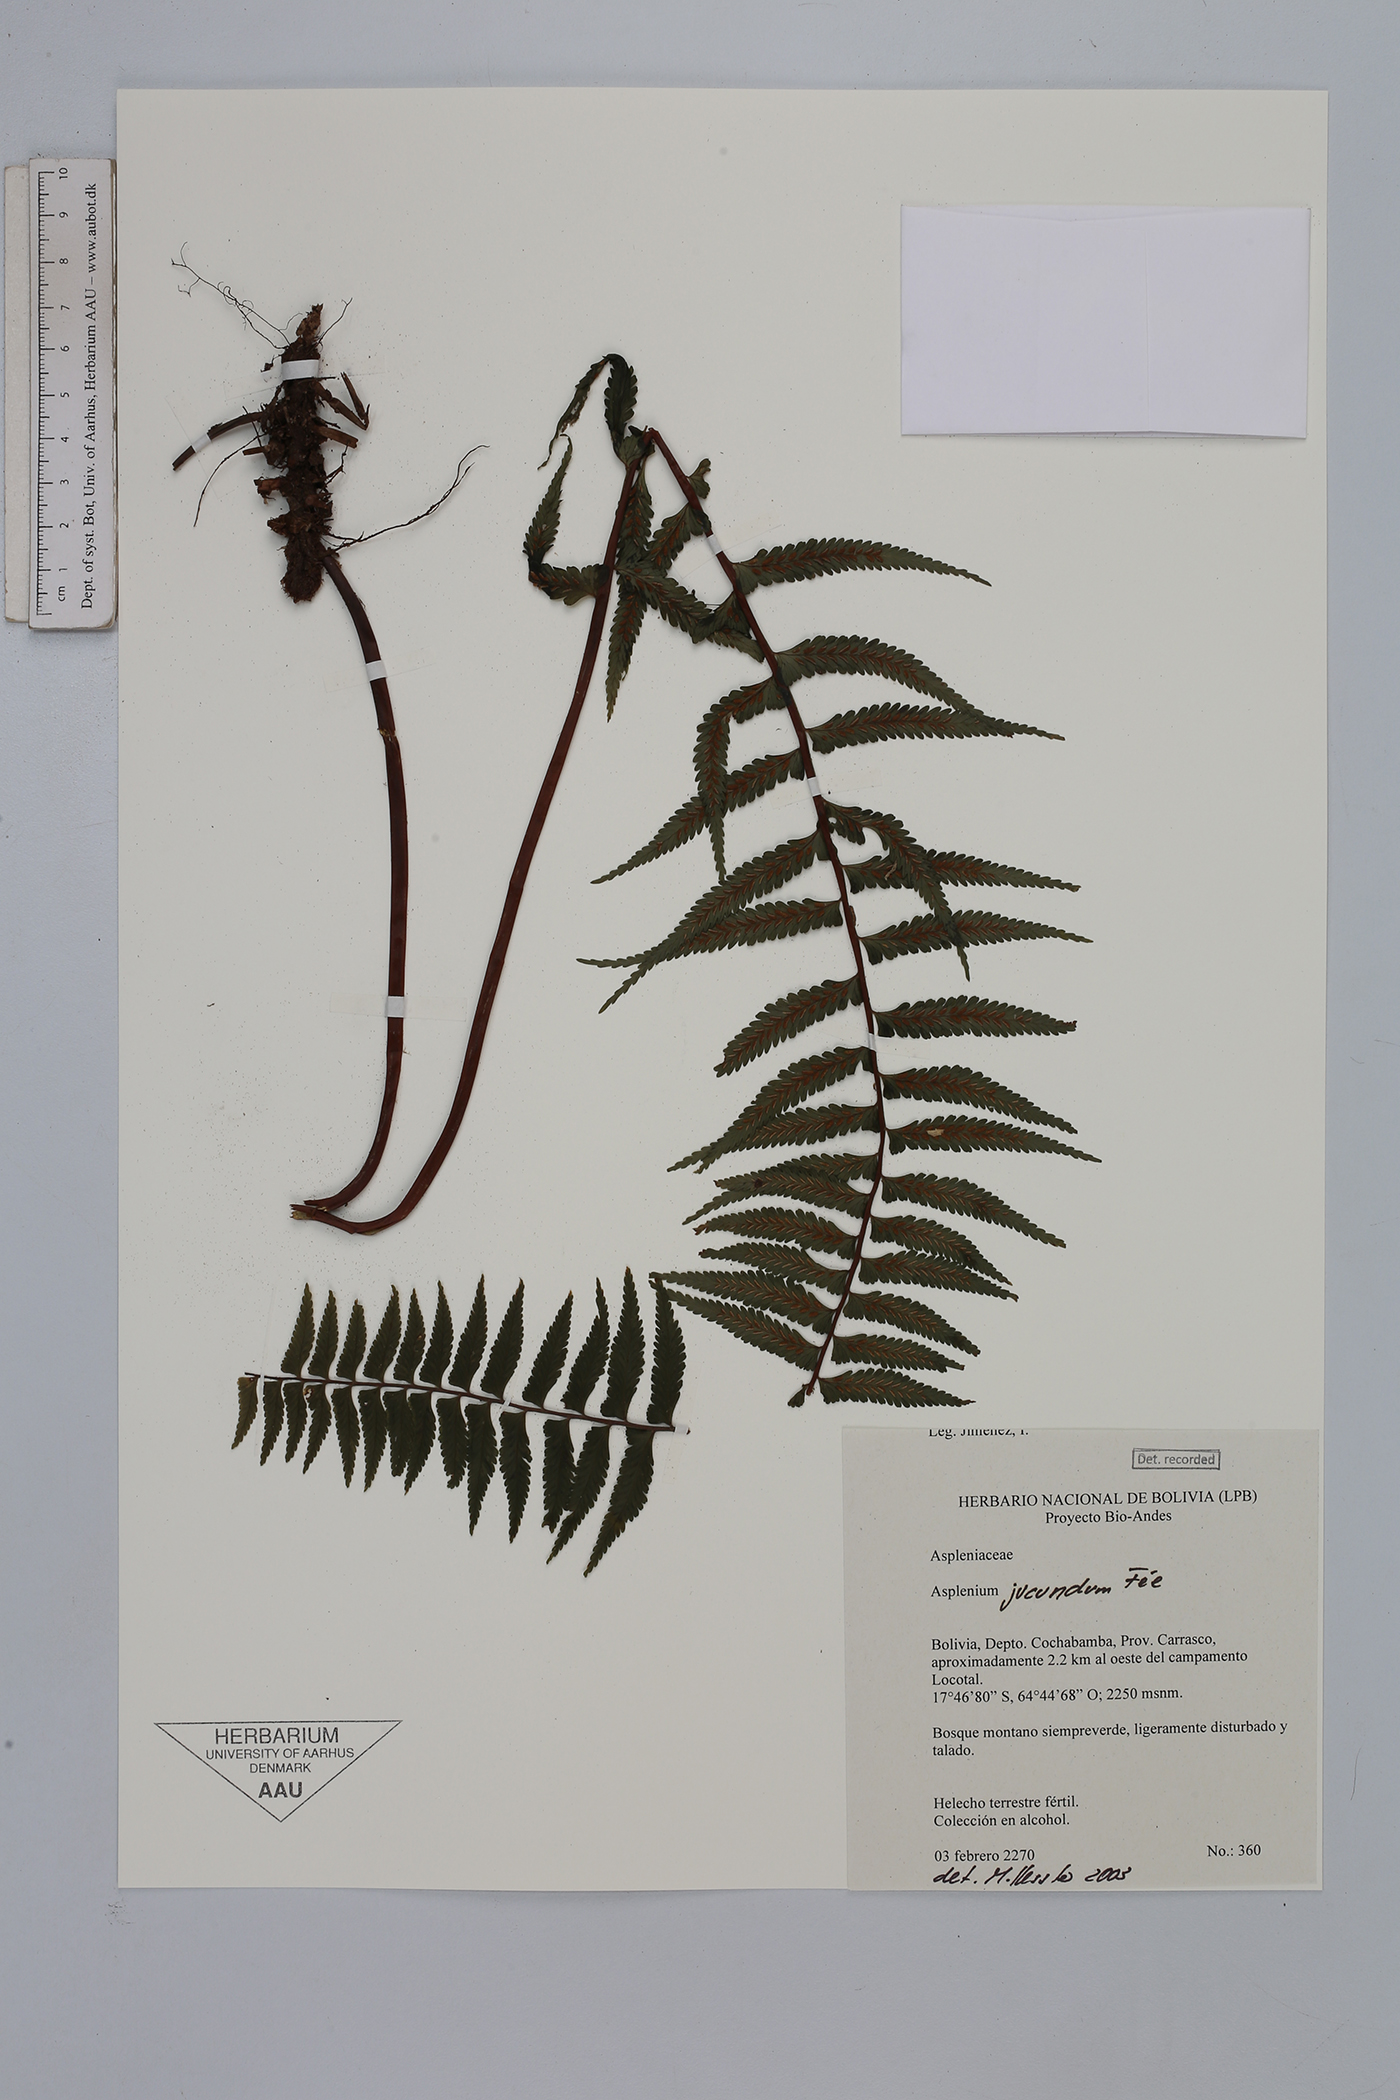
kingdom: Plantae
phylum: Tracheophyta
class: Polypodiopsida
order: Polypodiales
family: Aspleniaceae
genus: Asplenium
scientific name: Asplenium harpeodes
